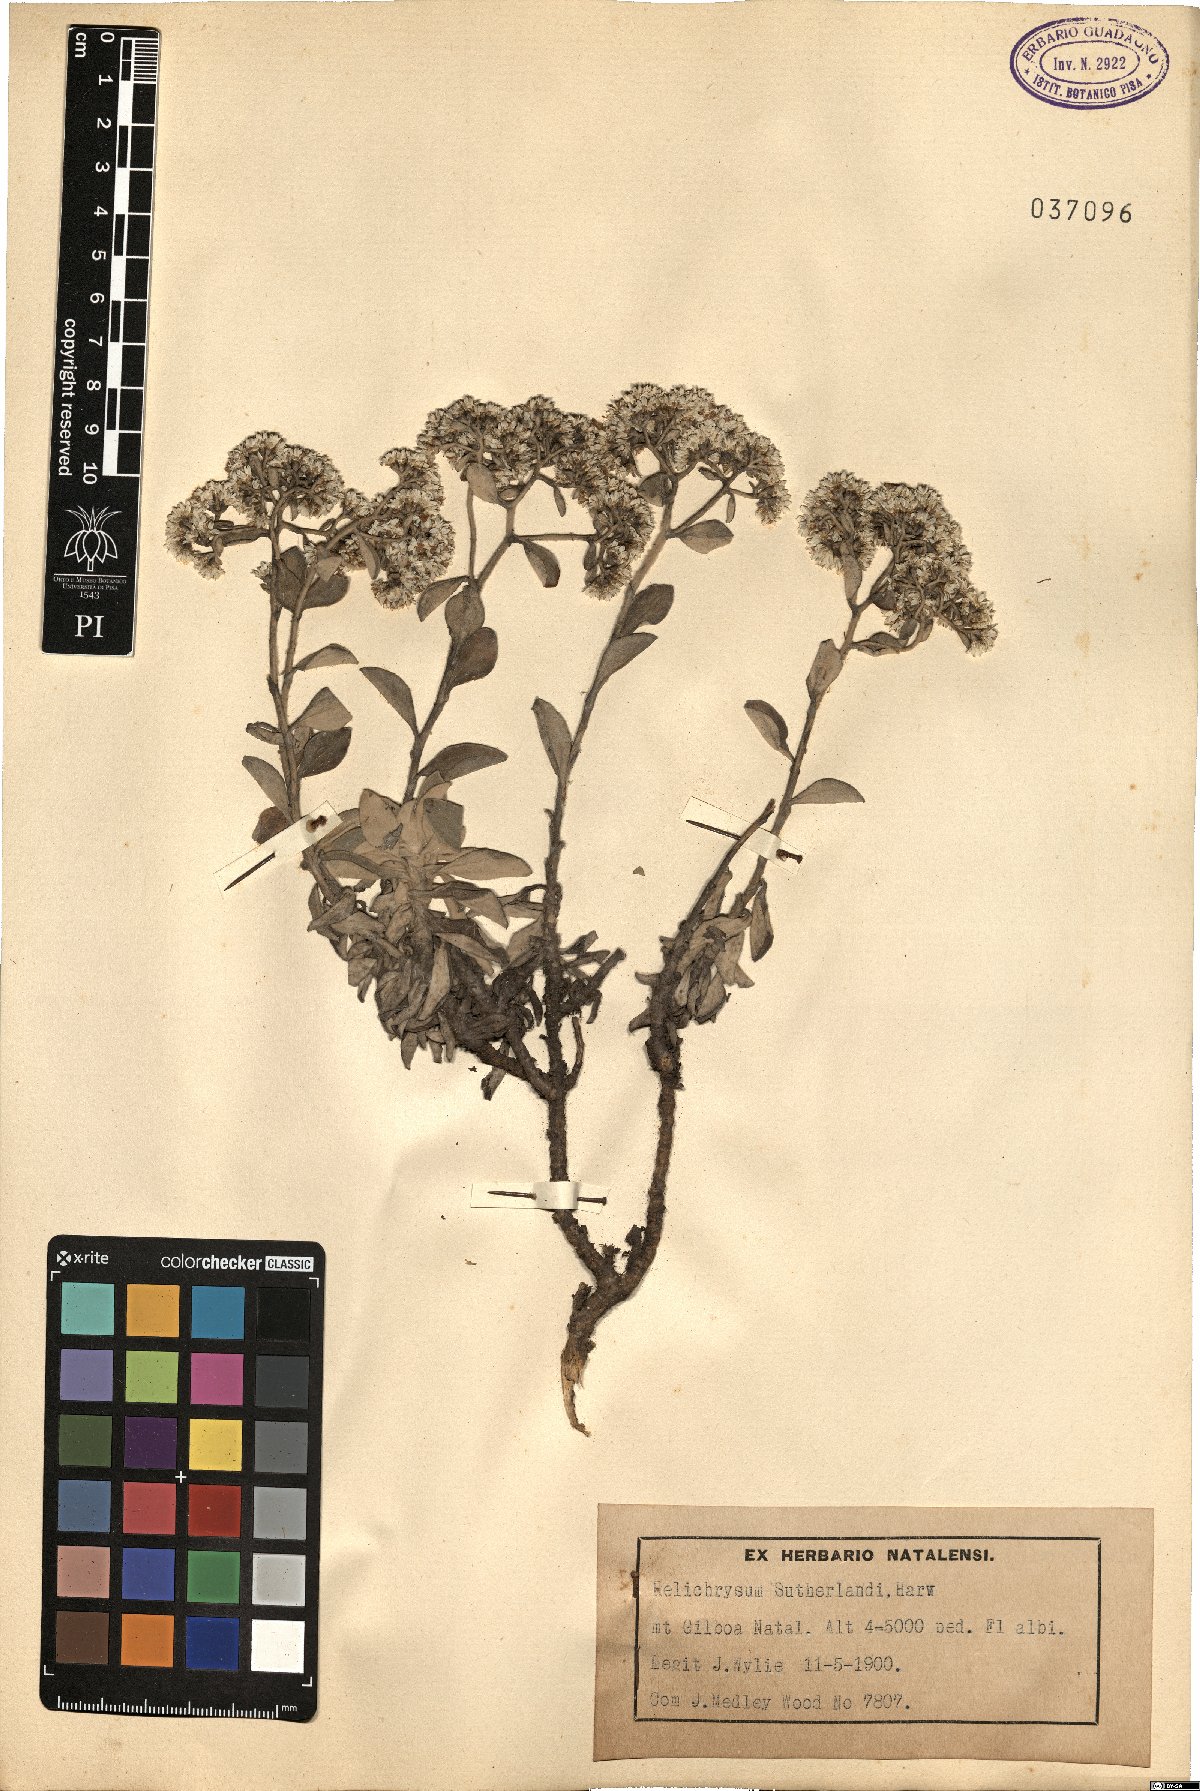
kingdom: Plantae
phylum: Tracheophyta
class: Magnoliopsida
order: Asterales
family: Asteraceae
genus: Helichrysum
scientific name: Helichrysum sutherlandii
